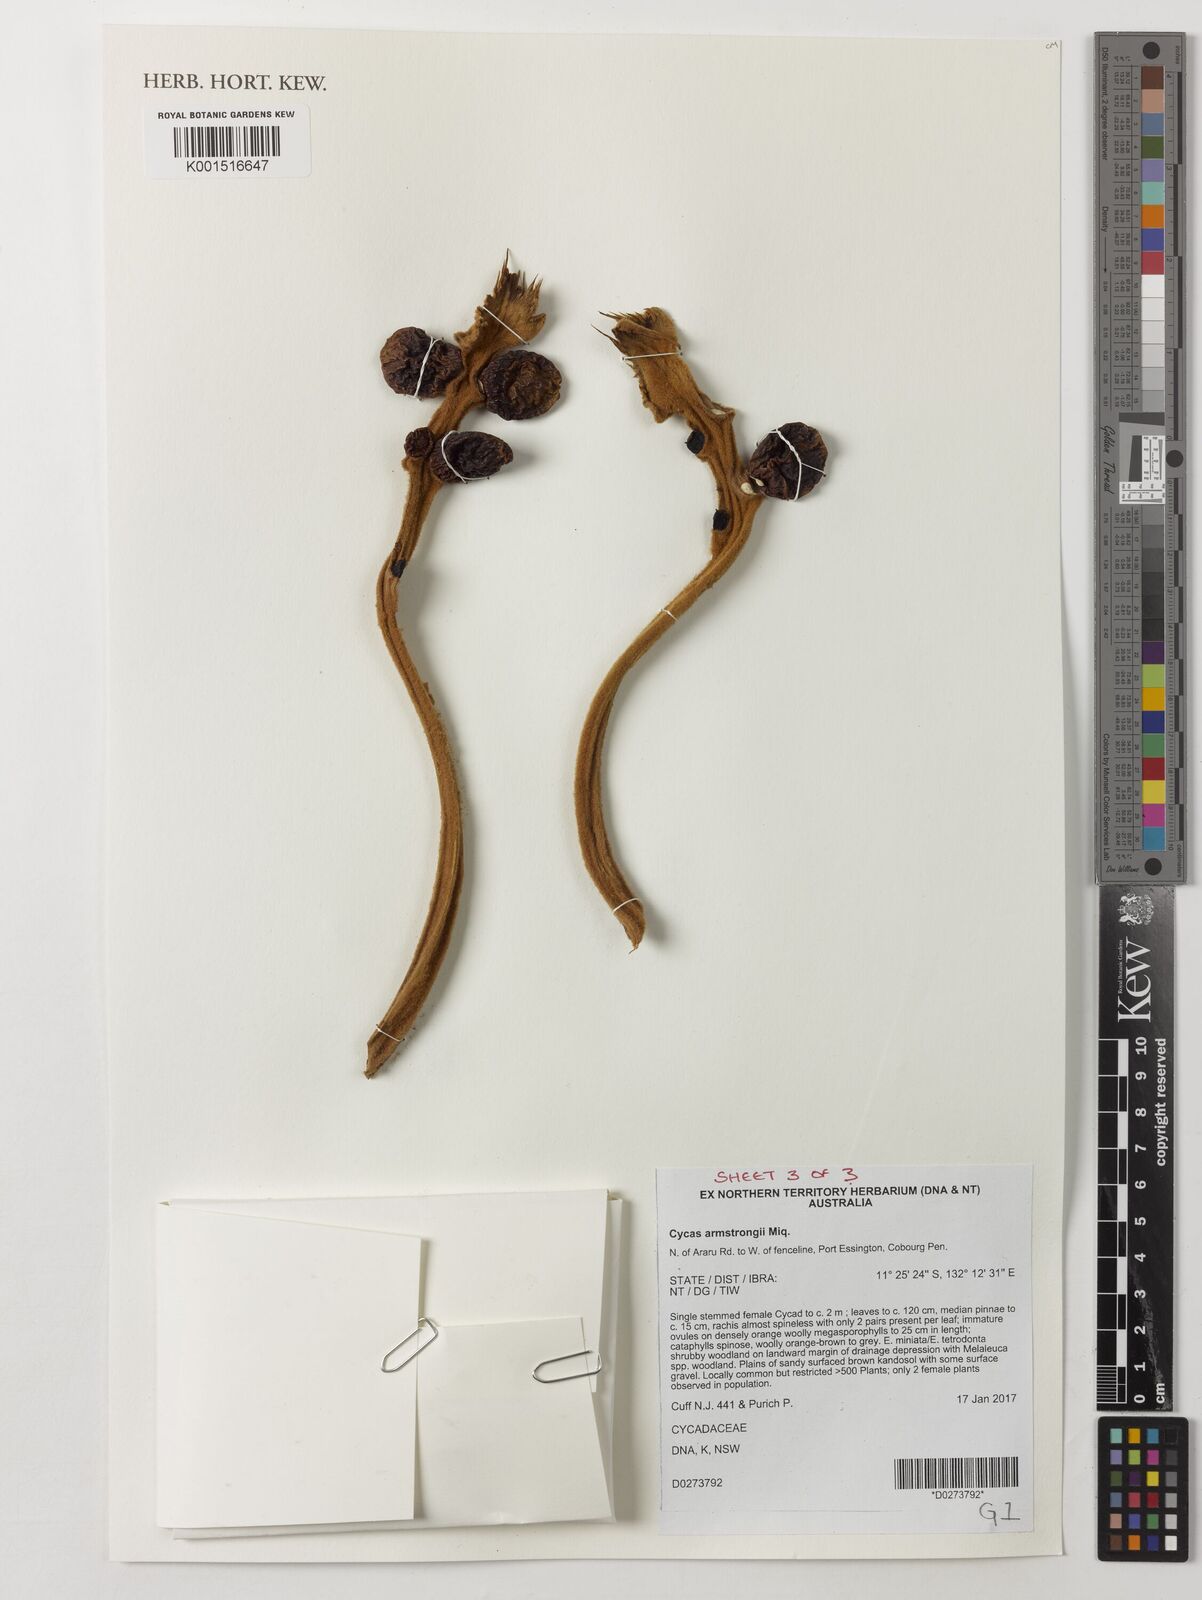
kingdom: Plantae
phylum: Tracheophyta
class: Cycadopsida
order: Cycadales
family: Cycadaceae
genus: Cycas
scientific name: Cycas armstrongii
